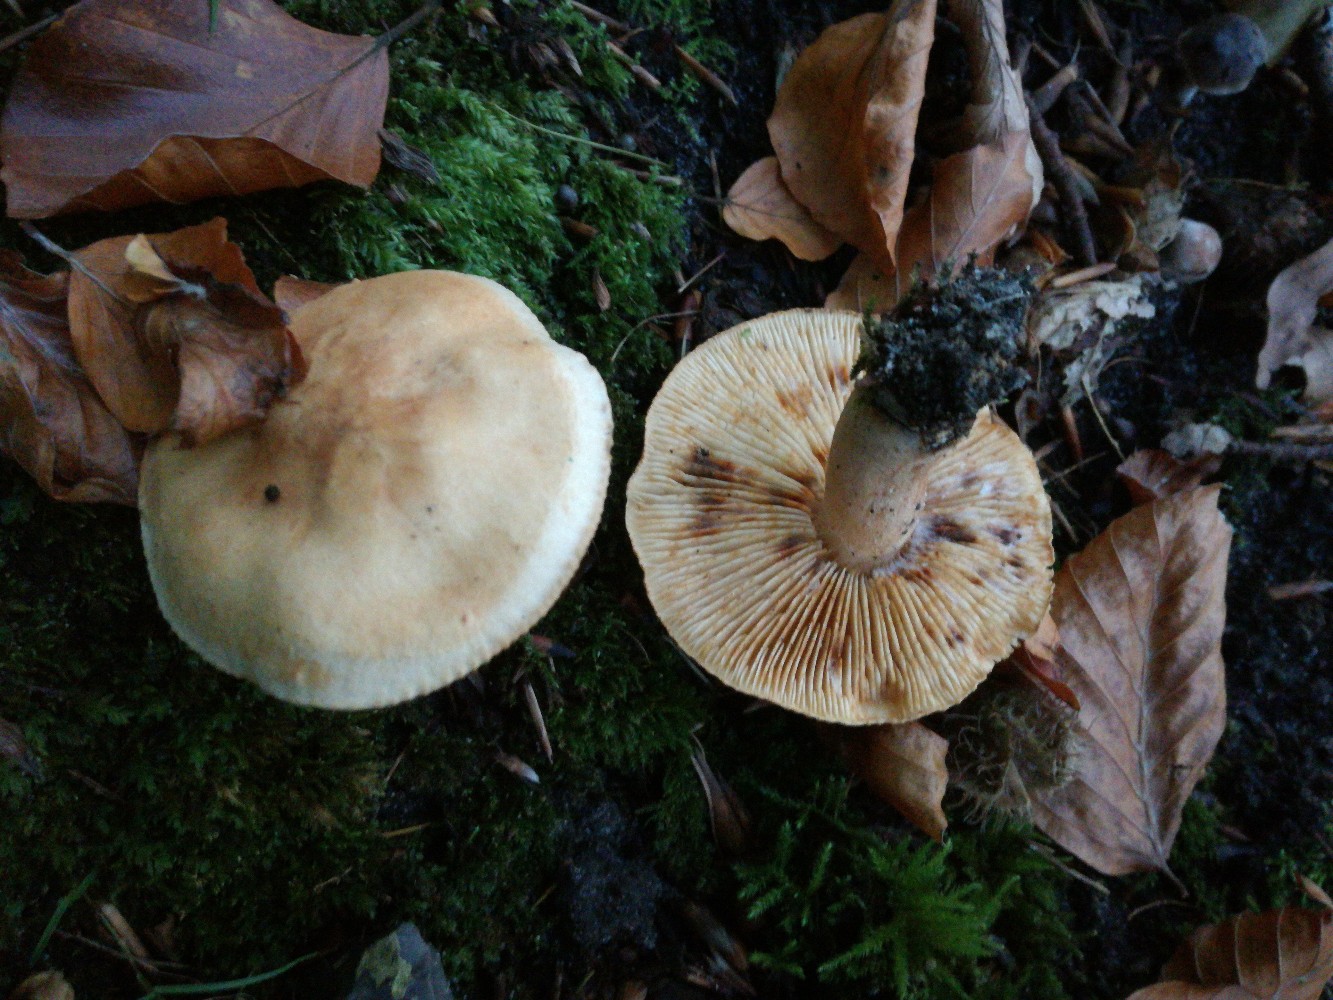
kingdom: Fungi
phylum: Basidiomycota
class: Agaricomycetes
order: Agaricales
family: Tricholomataceae
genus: Tricholoma
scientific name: Tricholoma psammopus
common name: grynstokket ridderhat
